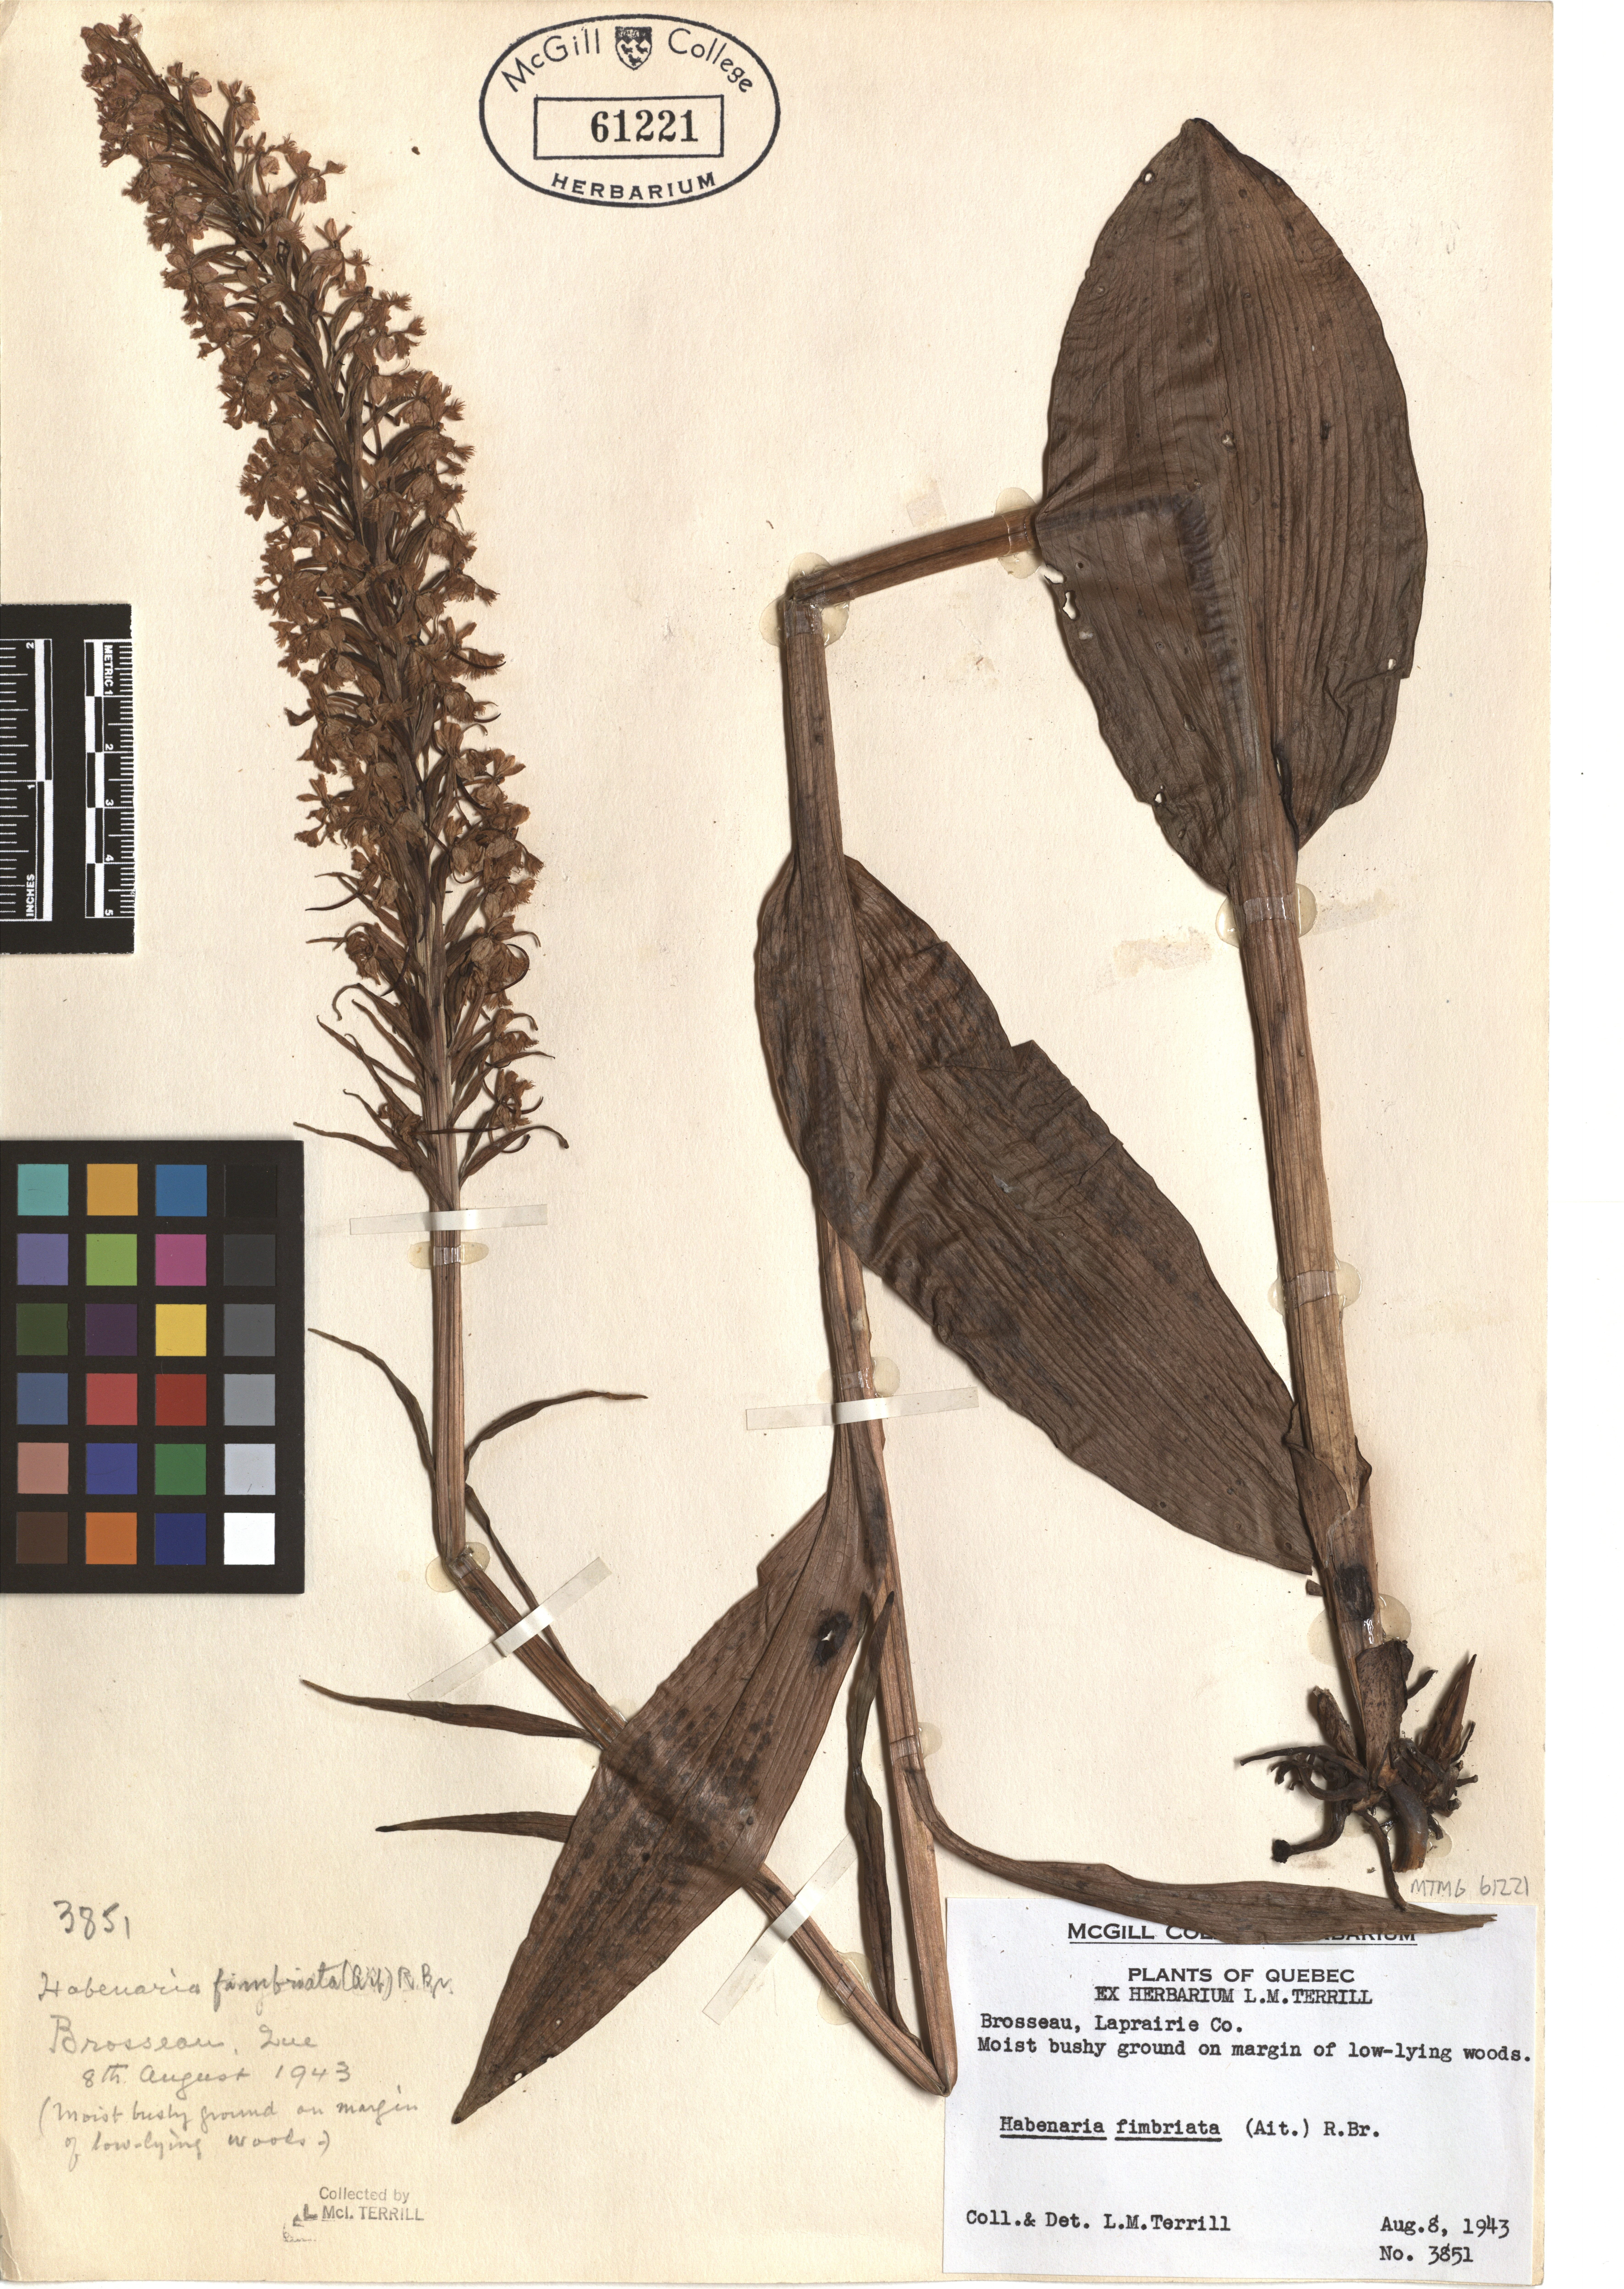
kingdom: Plantae
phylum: Tracheophyta
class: Liliopsida
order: Asparagales
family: Orchidaceae
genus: Platanthera
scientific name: Platanthera grandiflora
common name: Greater purple fringed orchid
